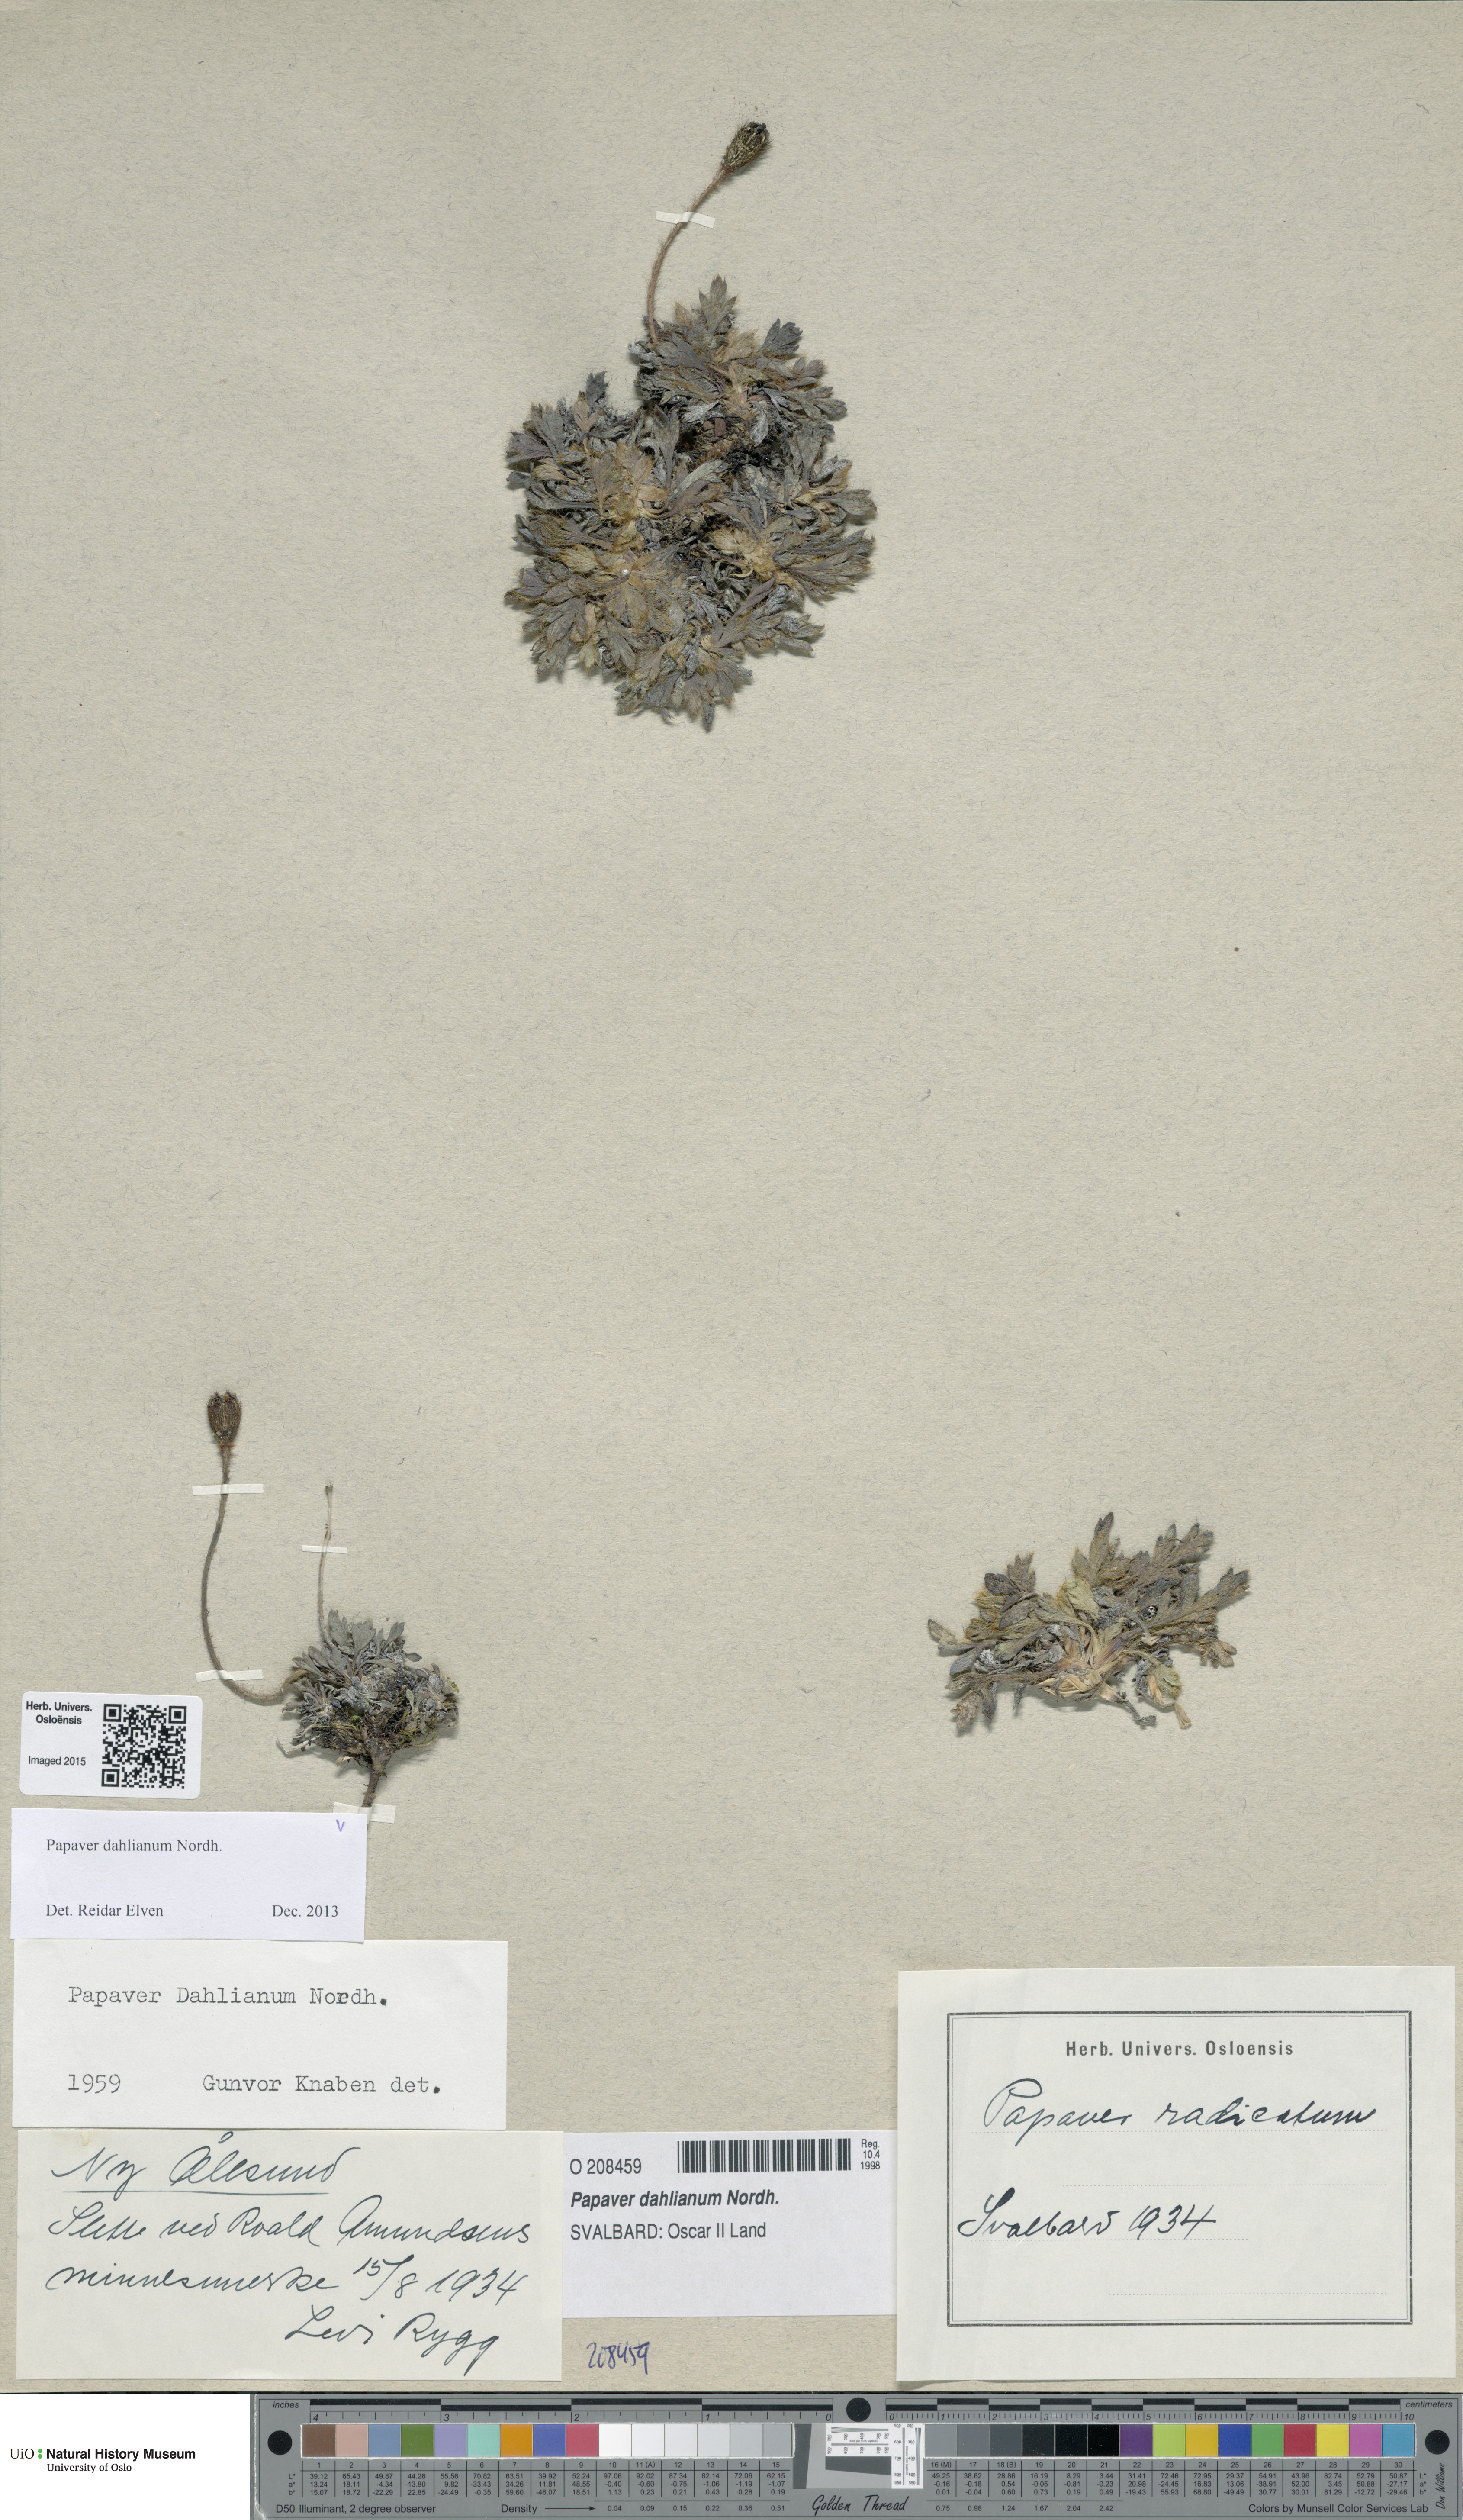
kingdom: Plantae
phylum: Tracheophyta
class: Magnoliopsida
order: Ranunculales
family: Papaveraceae
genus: Papaver
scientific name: Papaver radicatum
